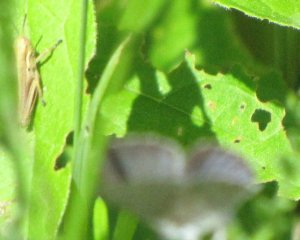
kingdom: Animalia
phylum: Arthropoda
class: Insecta
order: Lepidoptera
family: Lycaenidae
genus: Glaucopsyche
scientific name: Glaucopsyche lygdamus
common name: Silvery Blue
